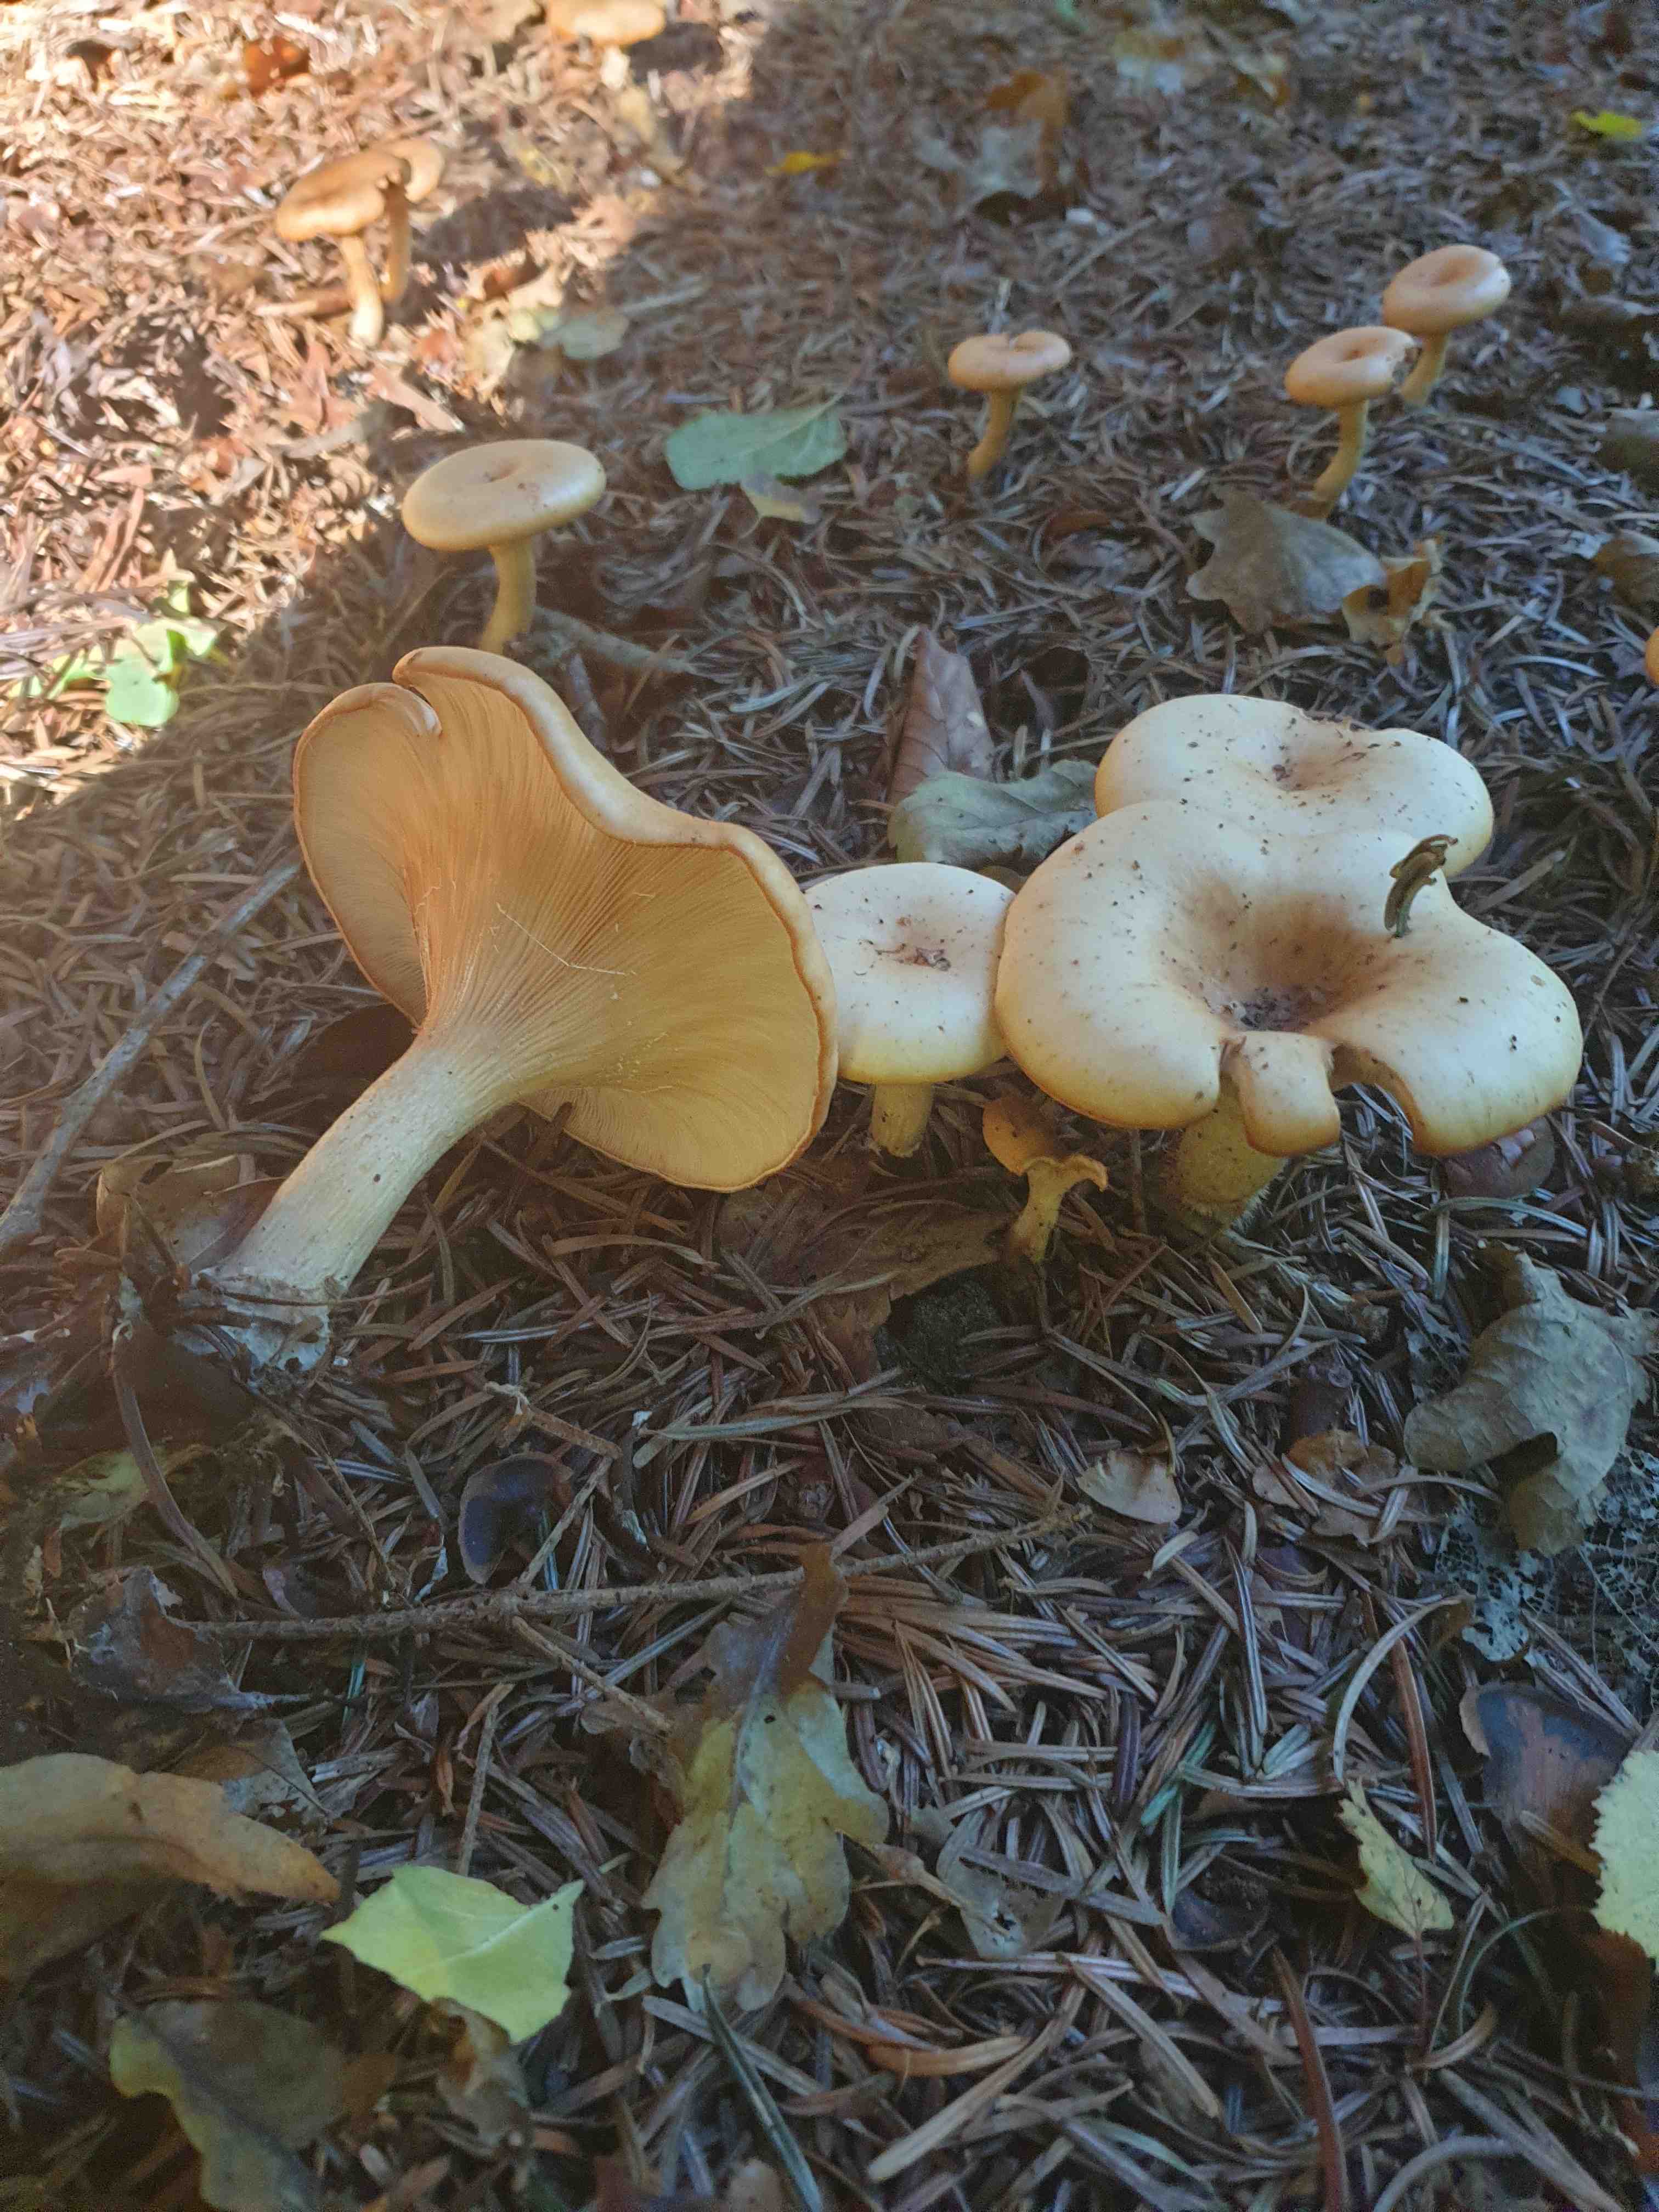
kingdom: Fungi
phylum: Basidiomycota
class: Agaricomycetes
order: Agaricales
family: Tricholomataceae
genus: Paralepista
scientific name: Paralepista
